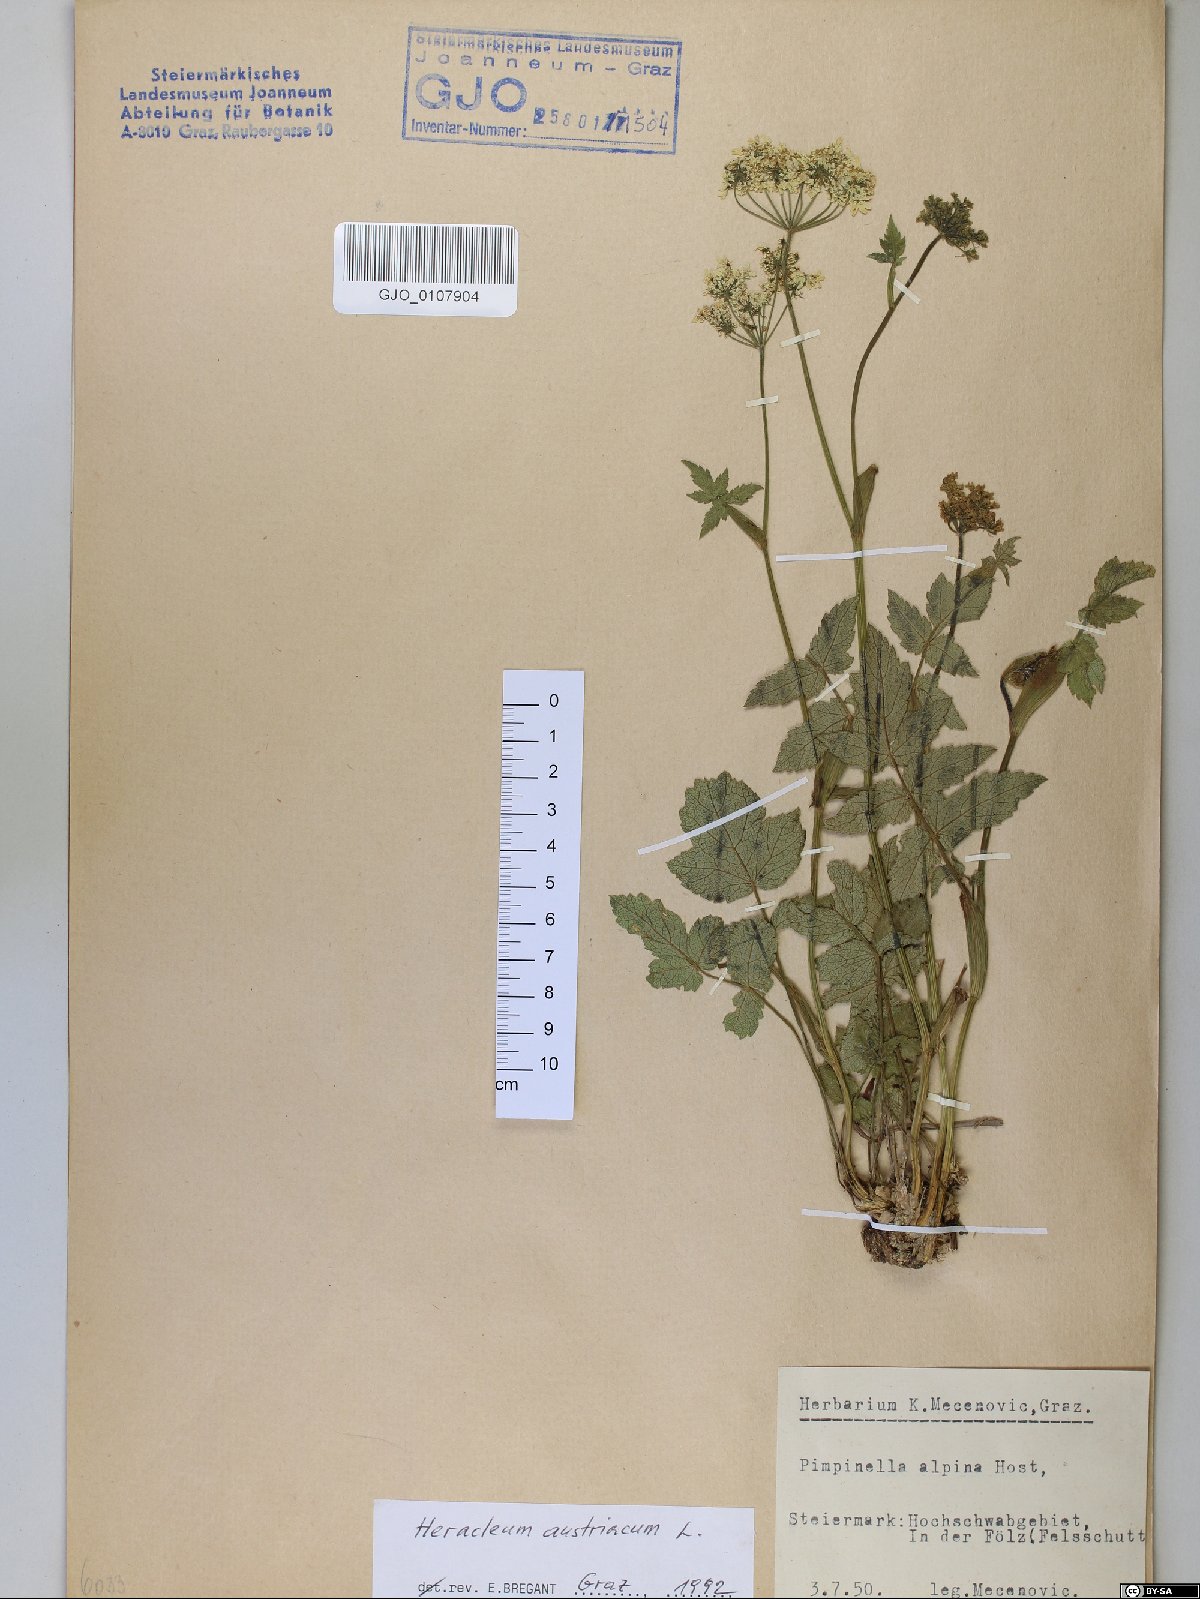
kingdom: Plantae
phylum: Tracheophyta
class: Magnoliopsida
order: Apiales
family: Apiaceae
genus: Heracleum
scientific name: Heracleum austriacum
